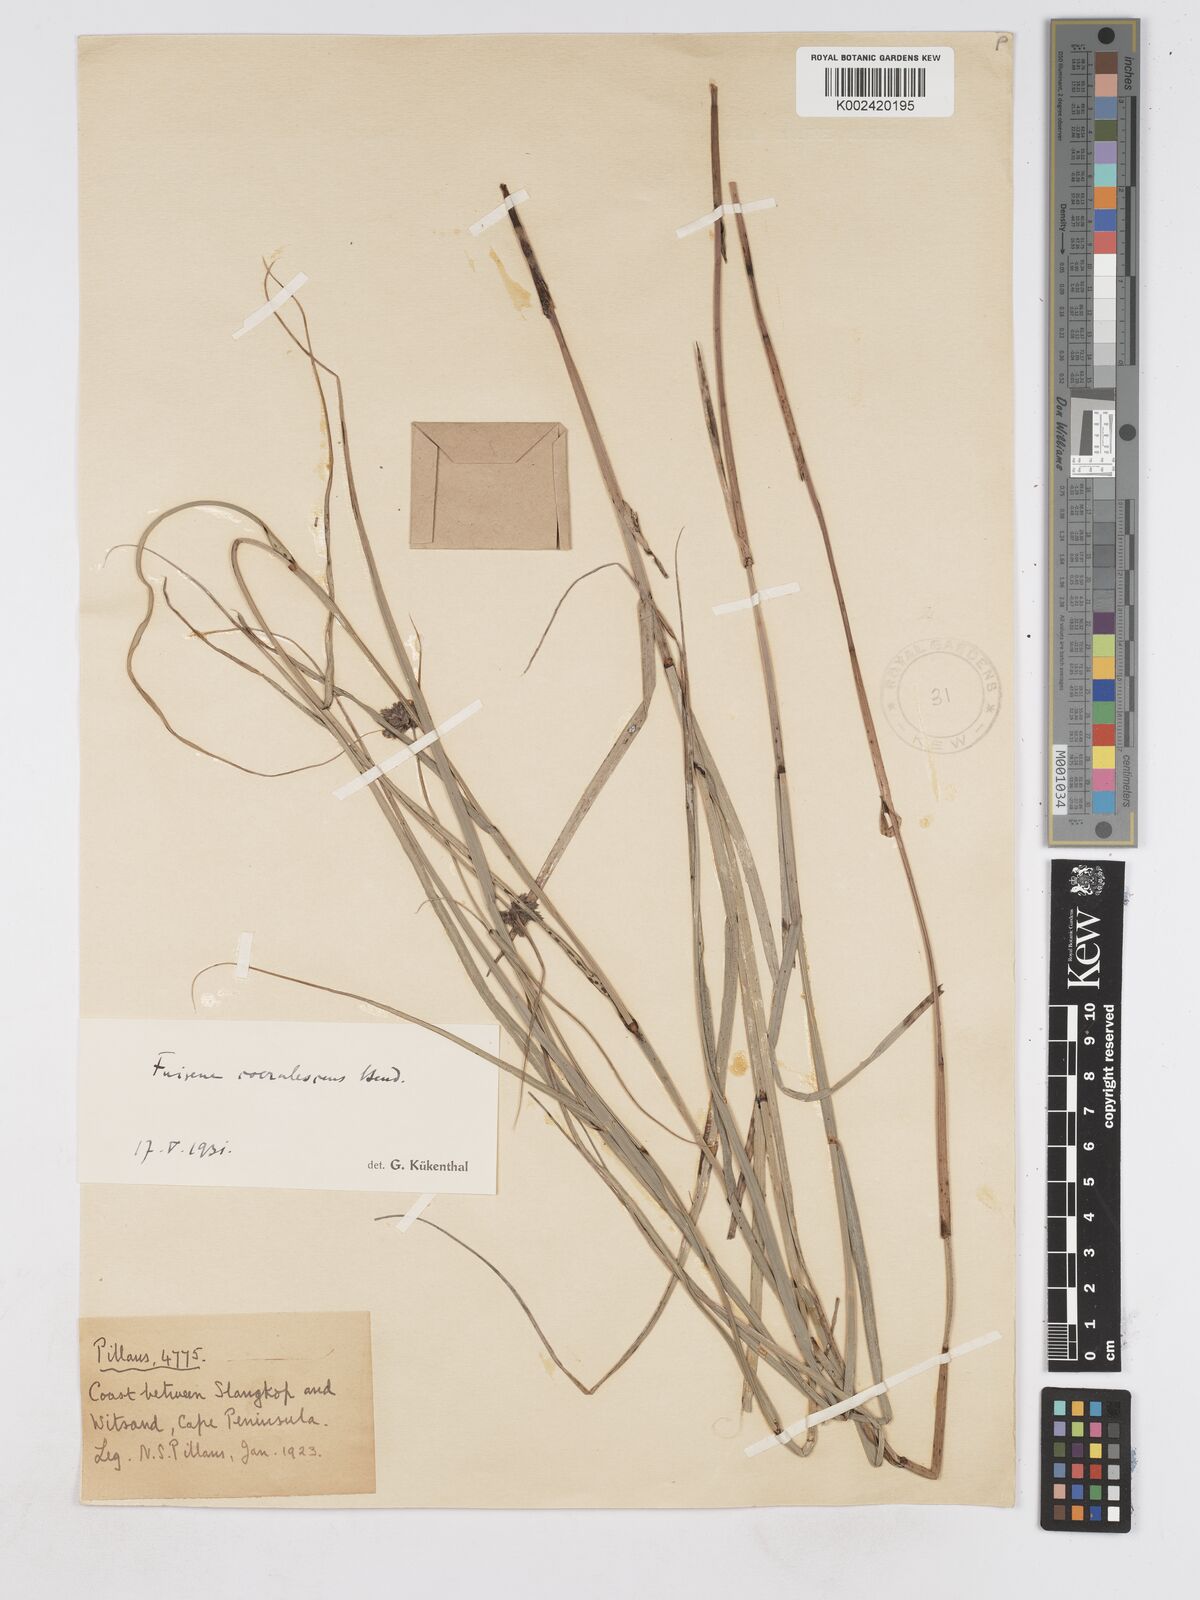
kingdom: Plantae
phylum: Tracheophyta
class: Liliopsida
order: Poales
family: Cyperaceae
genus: Fuirena
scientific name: Fuirena coerulescens
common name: Blue umbrella-sedge
